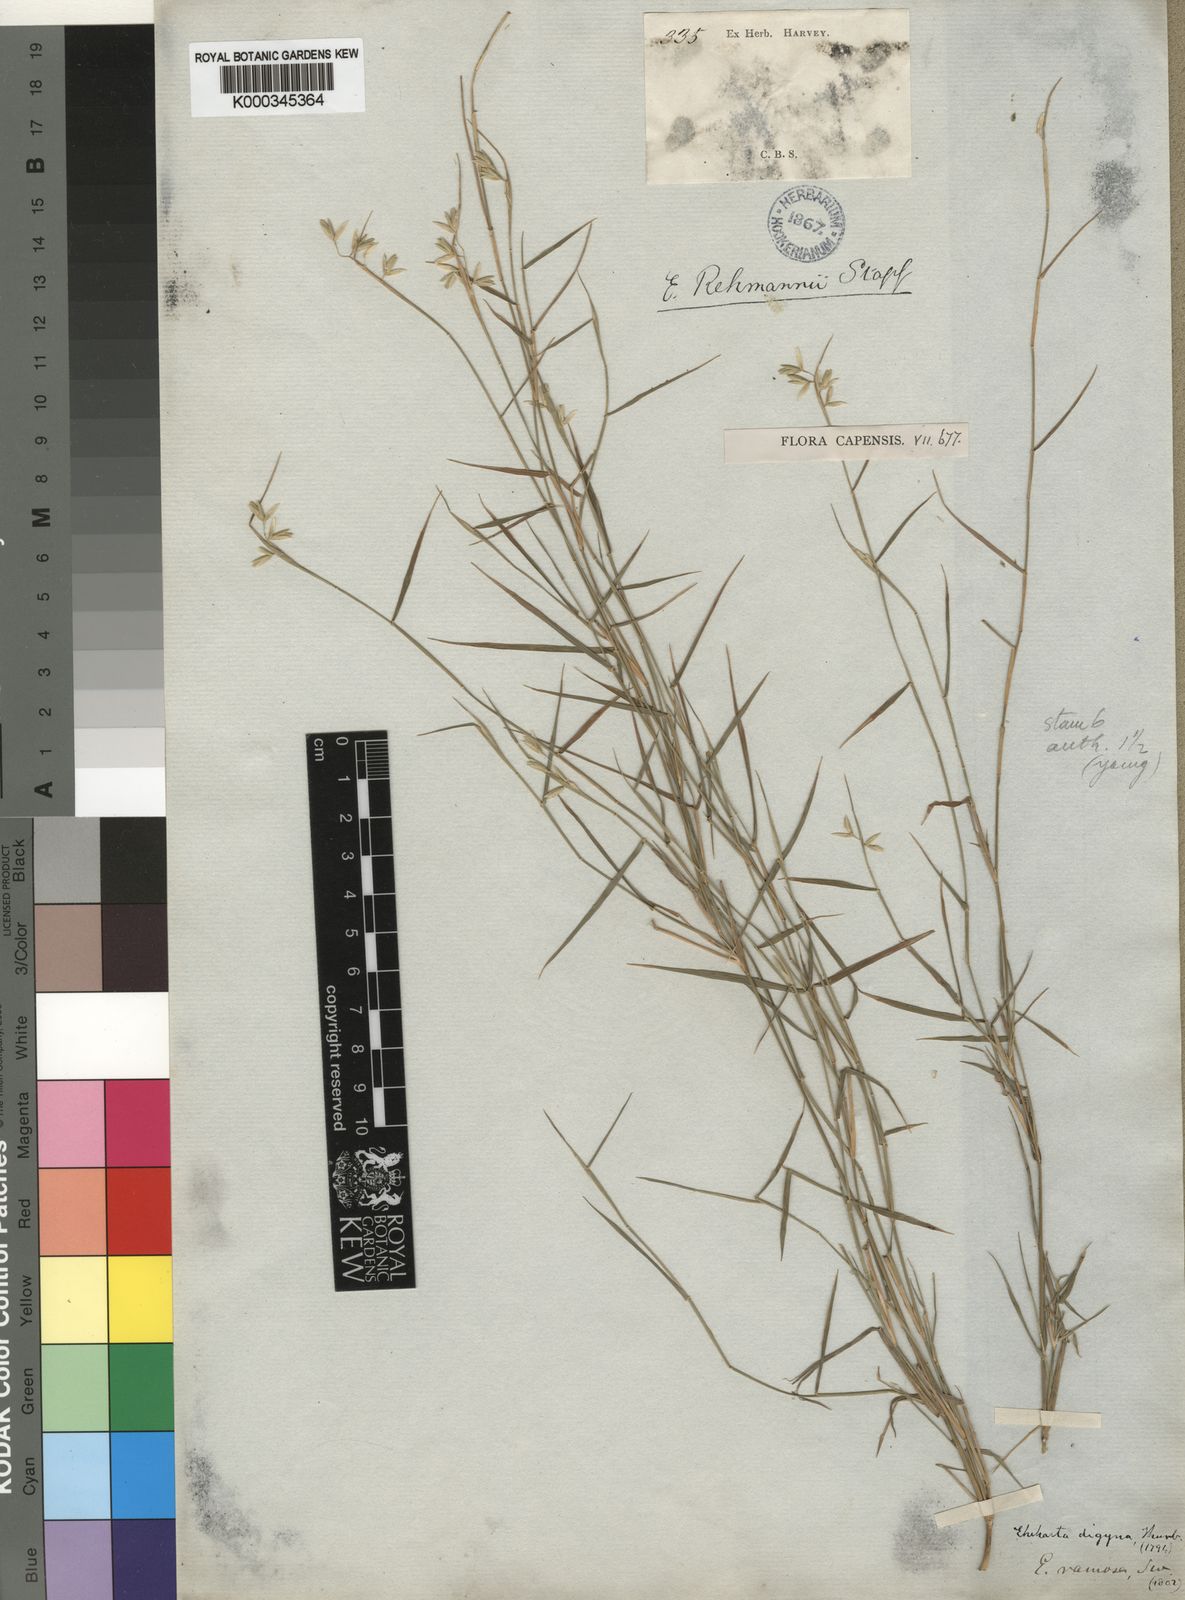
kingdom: Plantae
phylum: Tracheophyta
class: Liliopsida
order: Poales
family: Poaceae
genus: Ehrharta
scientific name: Ehrharta rehmannii
